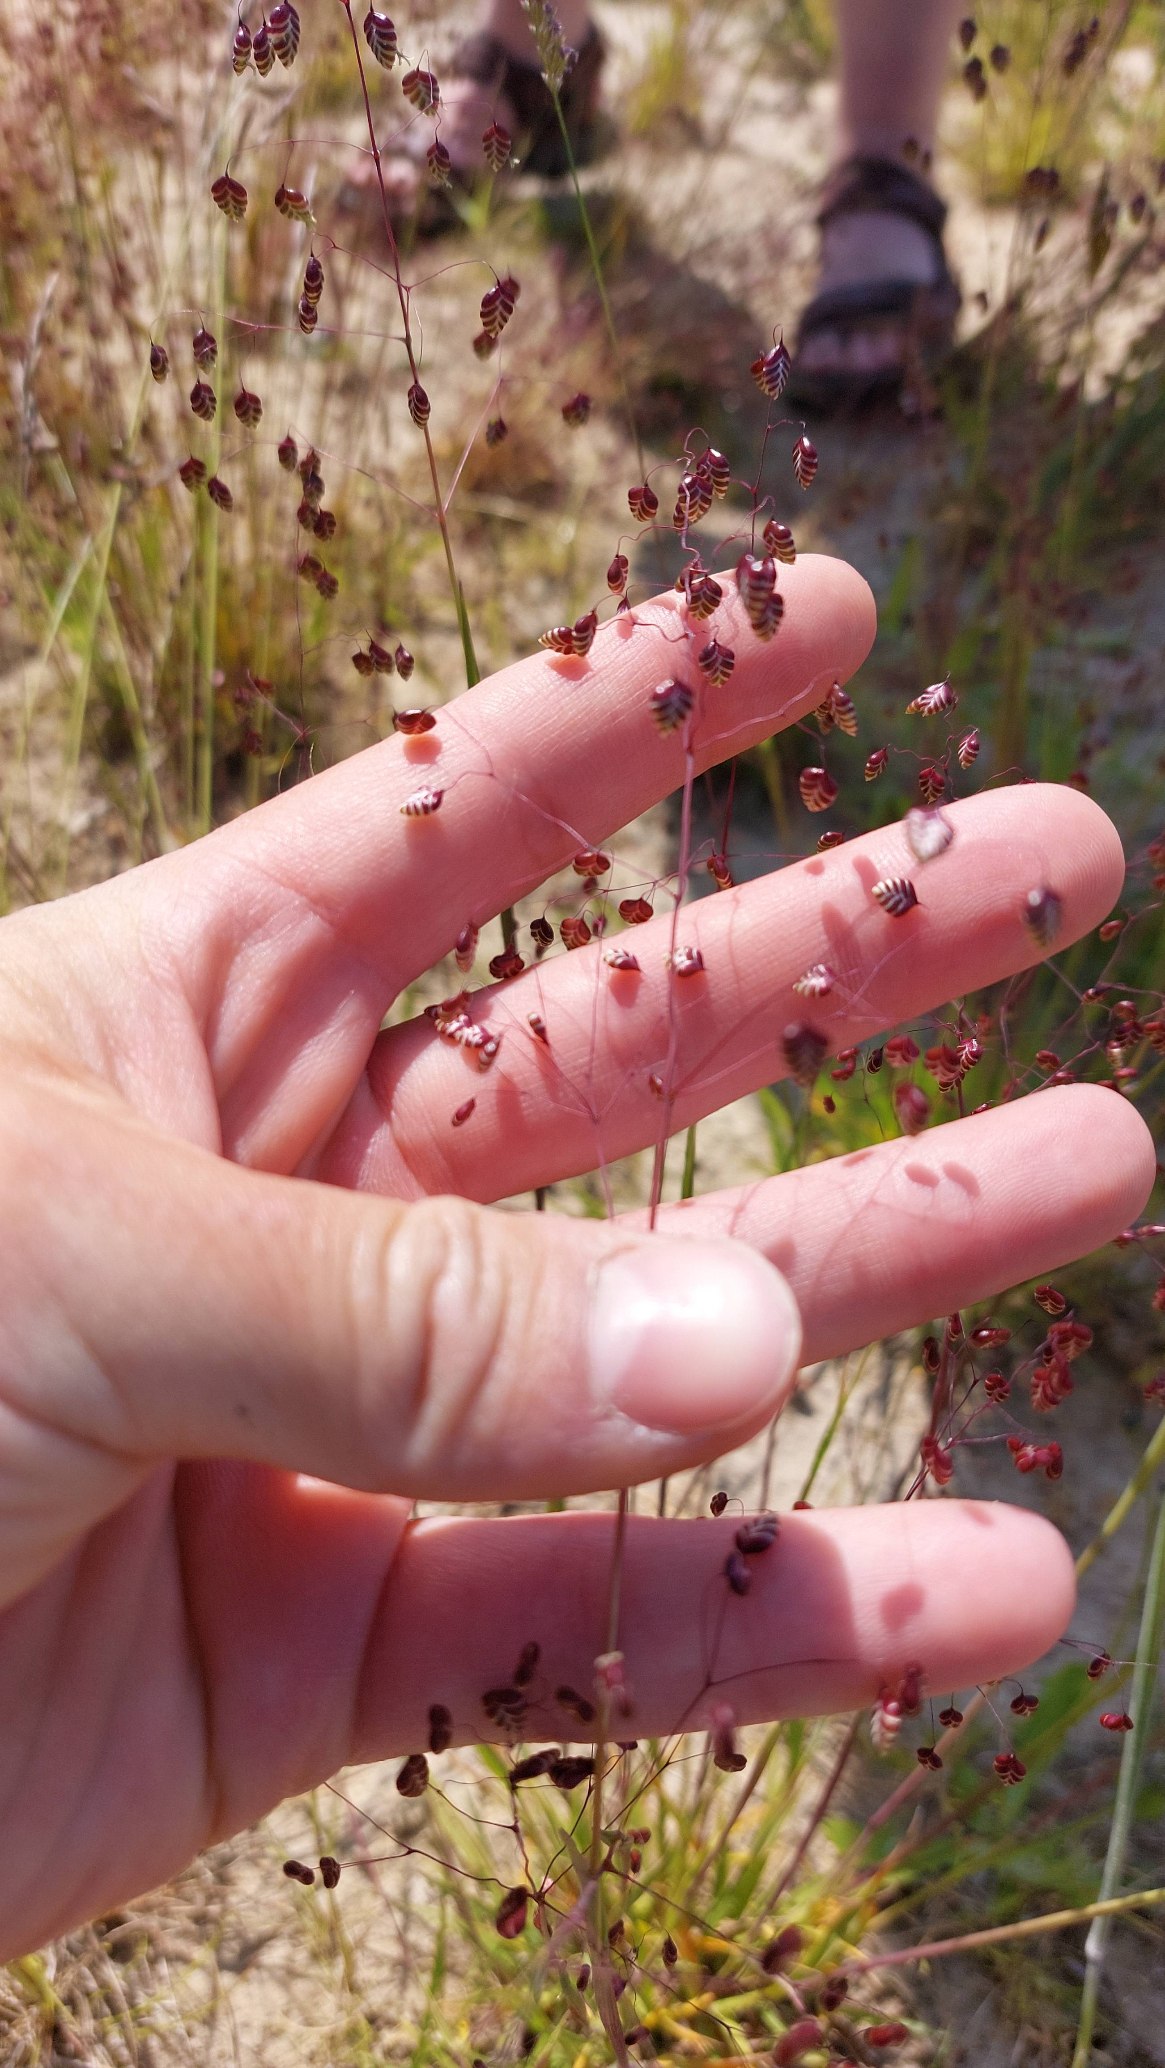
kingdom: Plantae
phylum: Tracheophyta
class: Liliopsida
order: Poales
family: Poaceae
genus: Briza
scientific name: Briza media
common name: Hjertegræs
